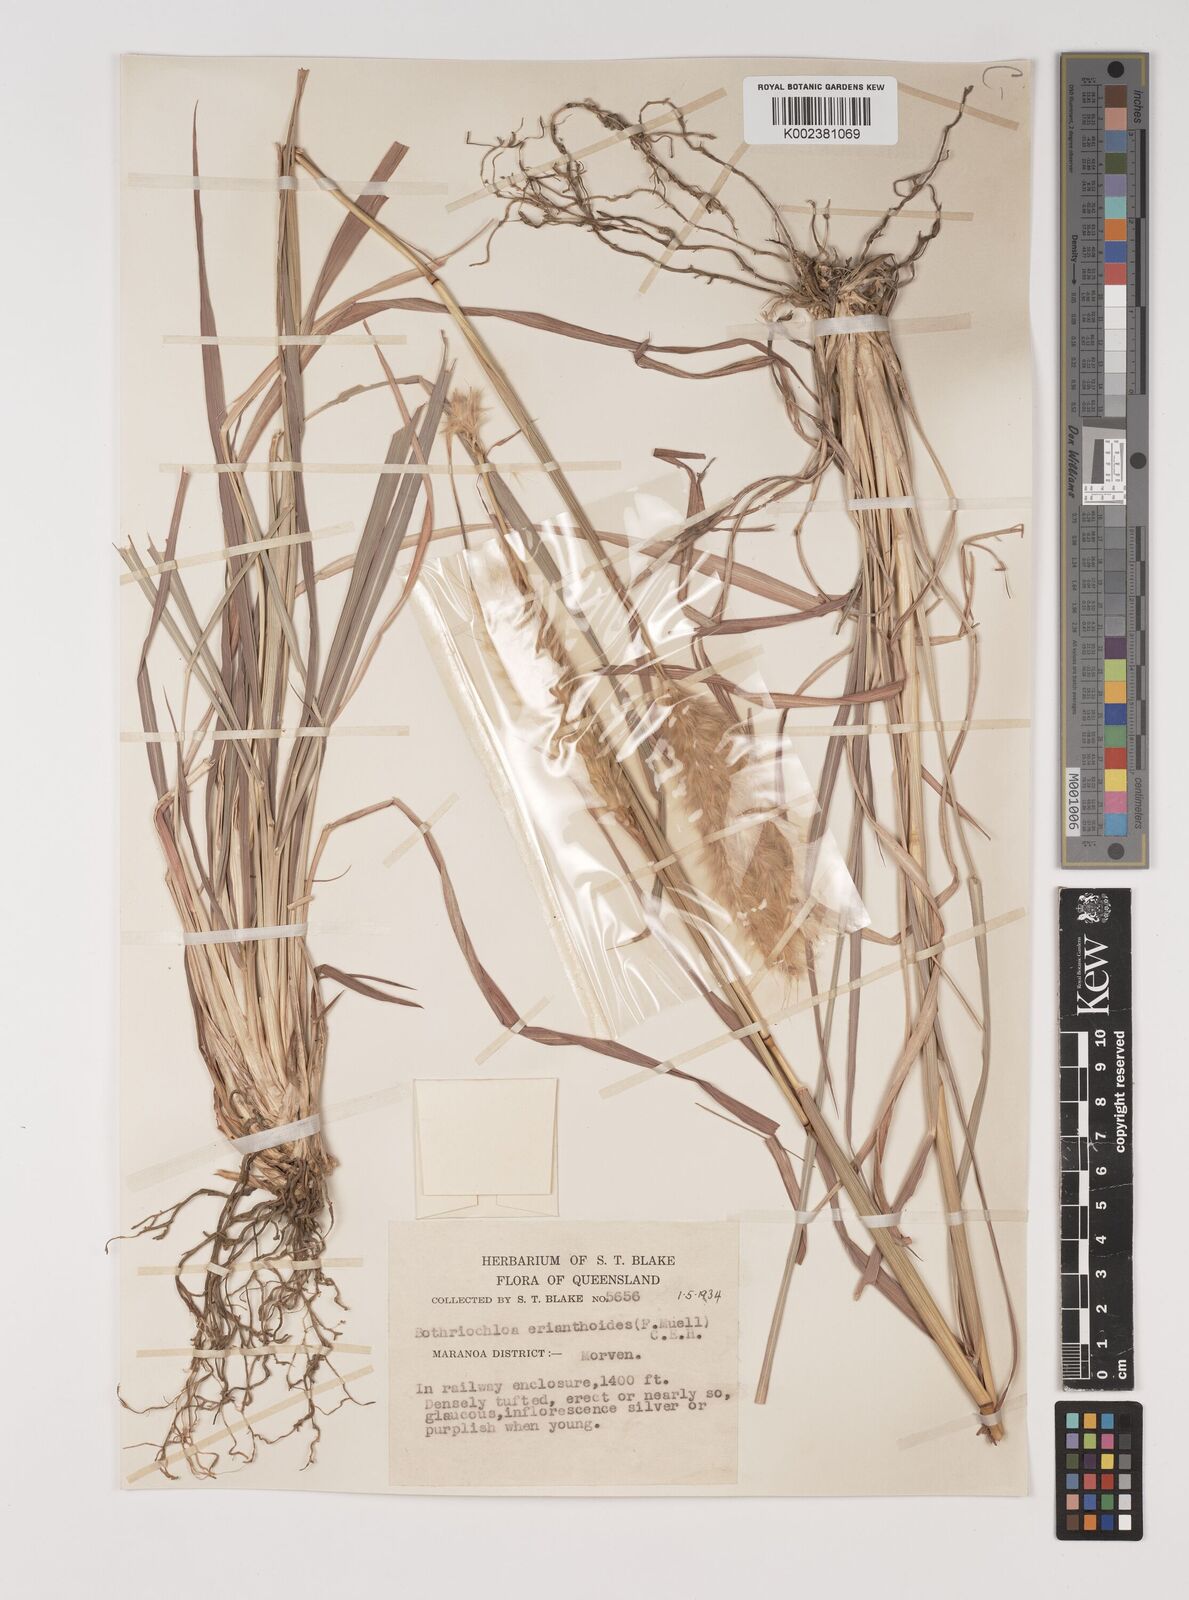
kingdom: Plantae
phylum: Tracheophyta
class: Liliopsida
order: Poales
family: Poaceae
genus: Bothriochloa
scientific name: Bothriochloa erianthoides
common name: Satin-top grass
